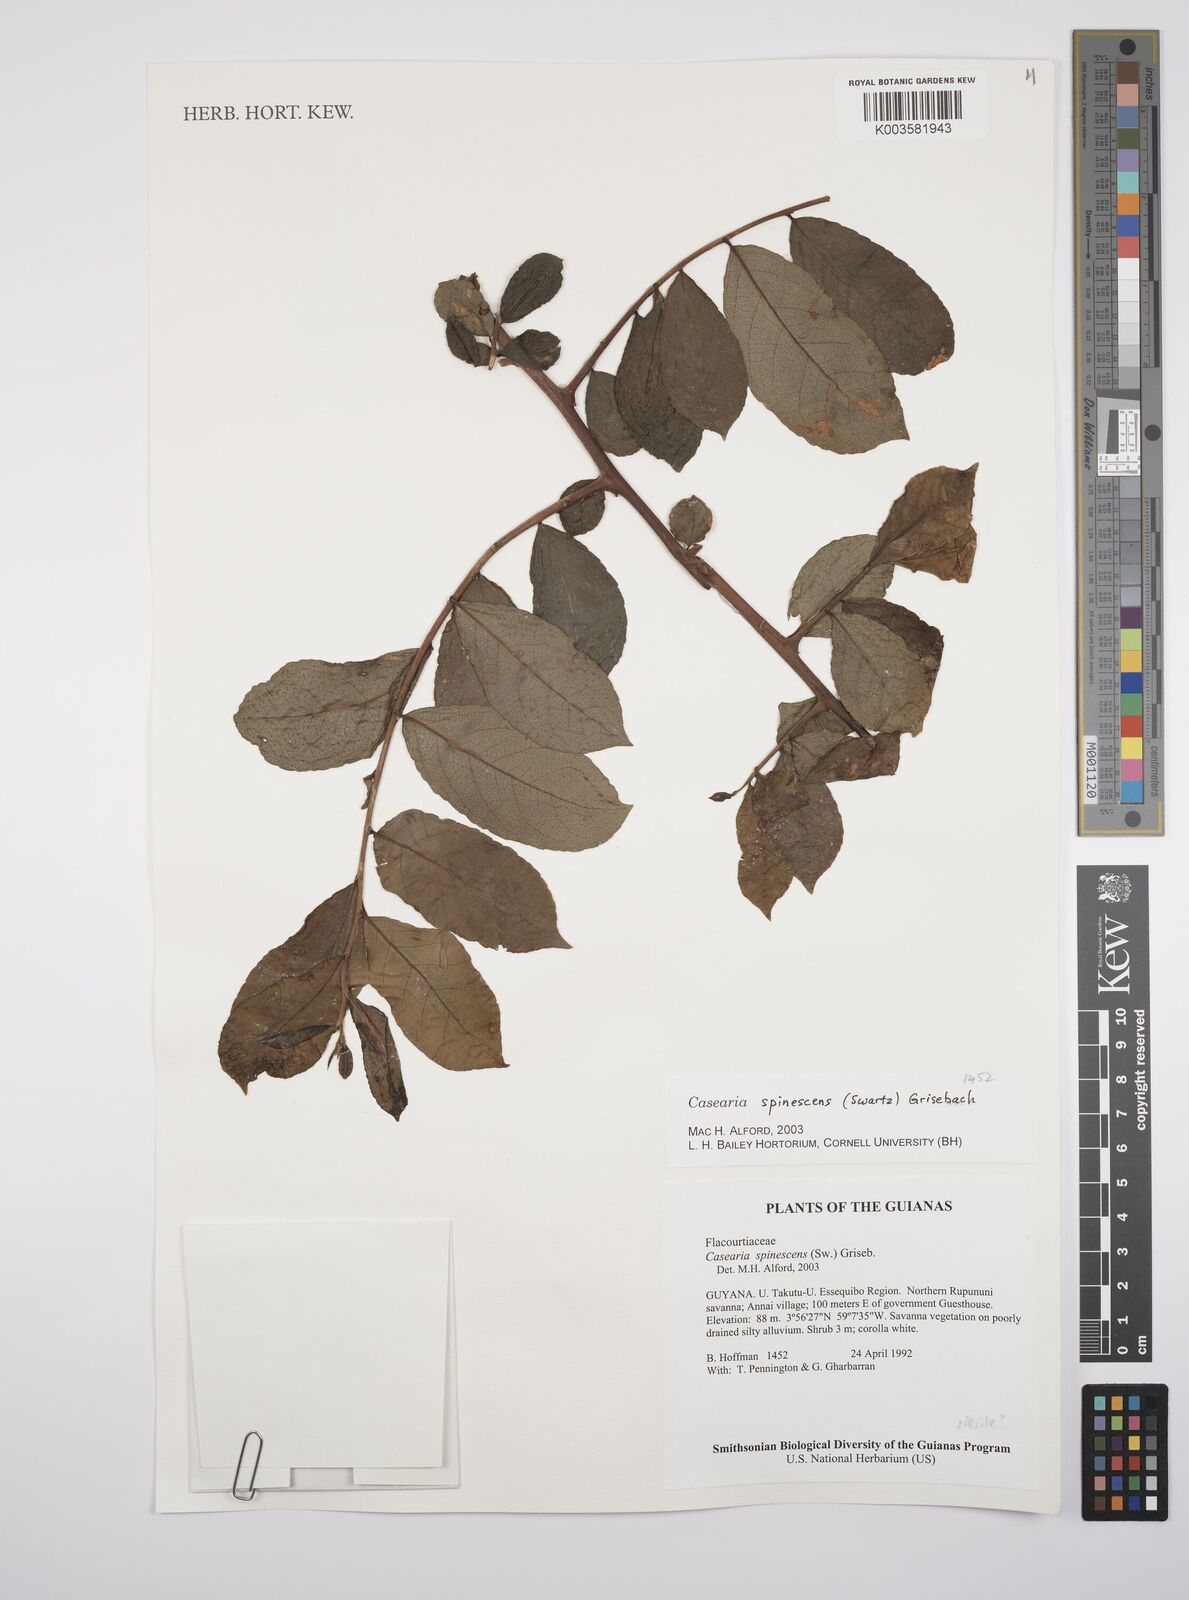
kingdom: Plantae
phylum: Tracheophyta
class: Magnoliopsida
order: Malpighiales
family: Salicaceae
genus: Casearia
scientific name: Casearia spinescens
